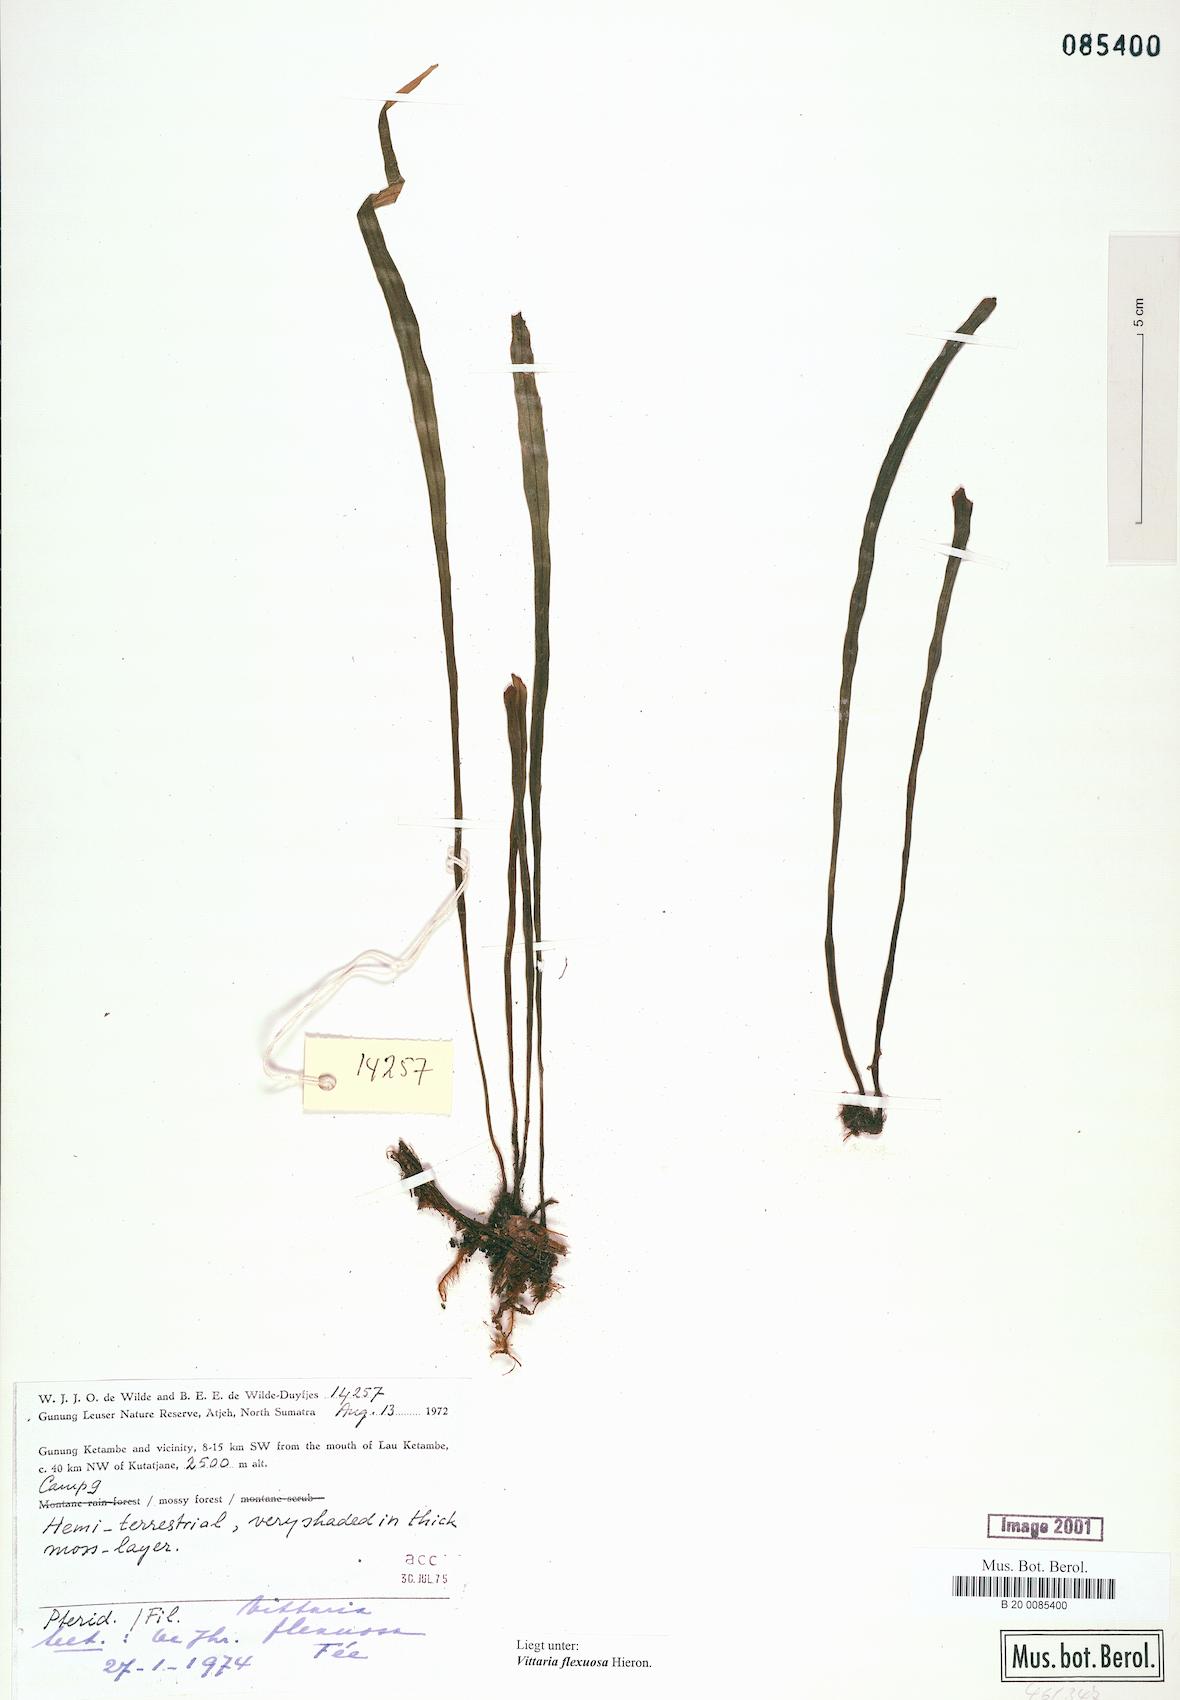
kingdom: Plantae
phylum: Tracheophyta
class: Polypodiopsida
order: Polypodiales
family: Pteridaceae
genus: Haplopteris
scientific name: Haplopteris flexuosa
